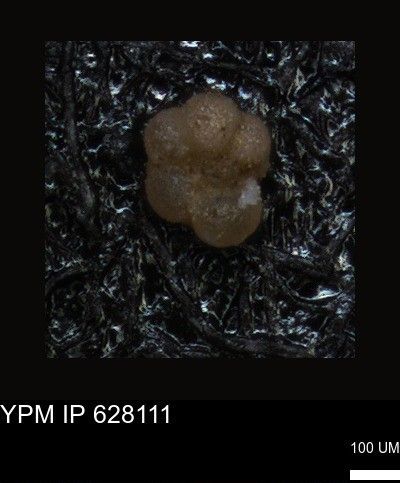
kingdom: Chromista
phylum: Foraminifera
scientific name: Foraminifera
